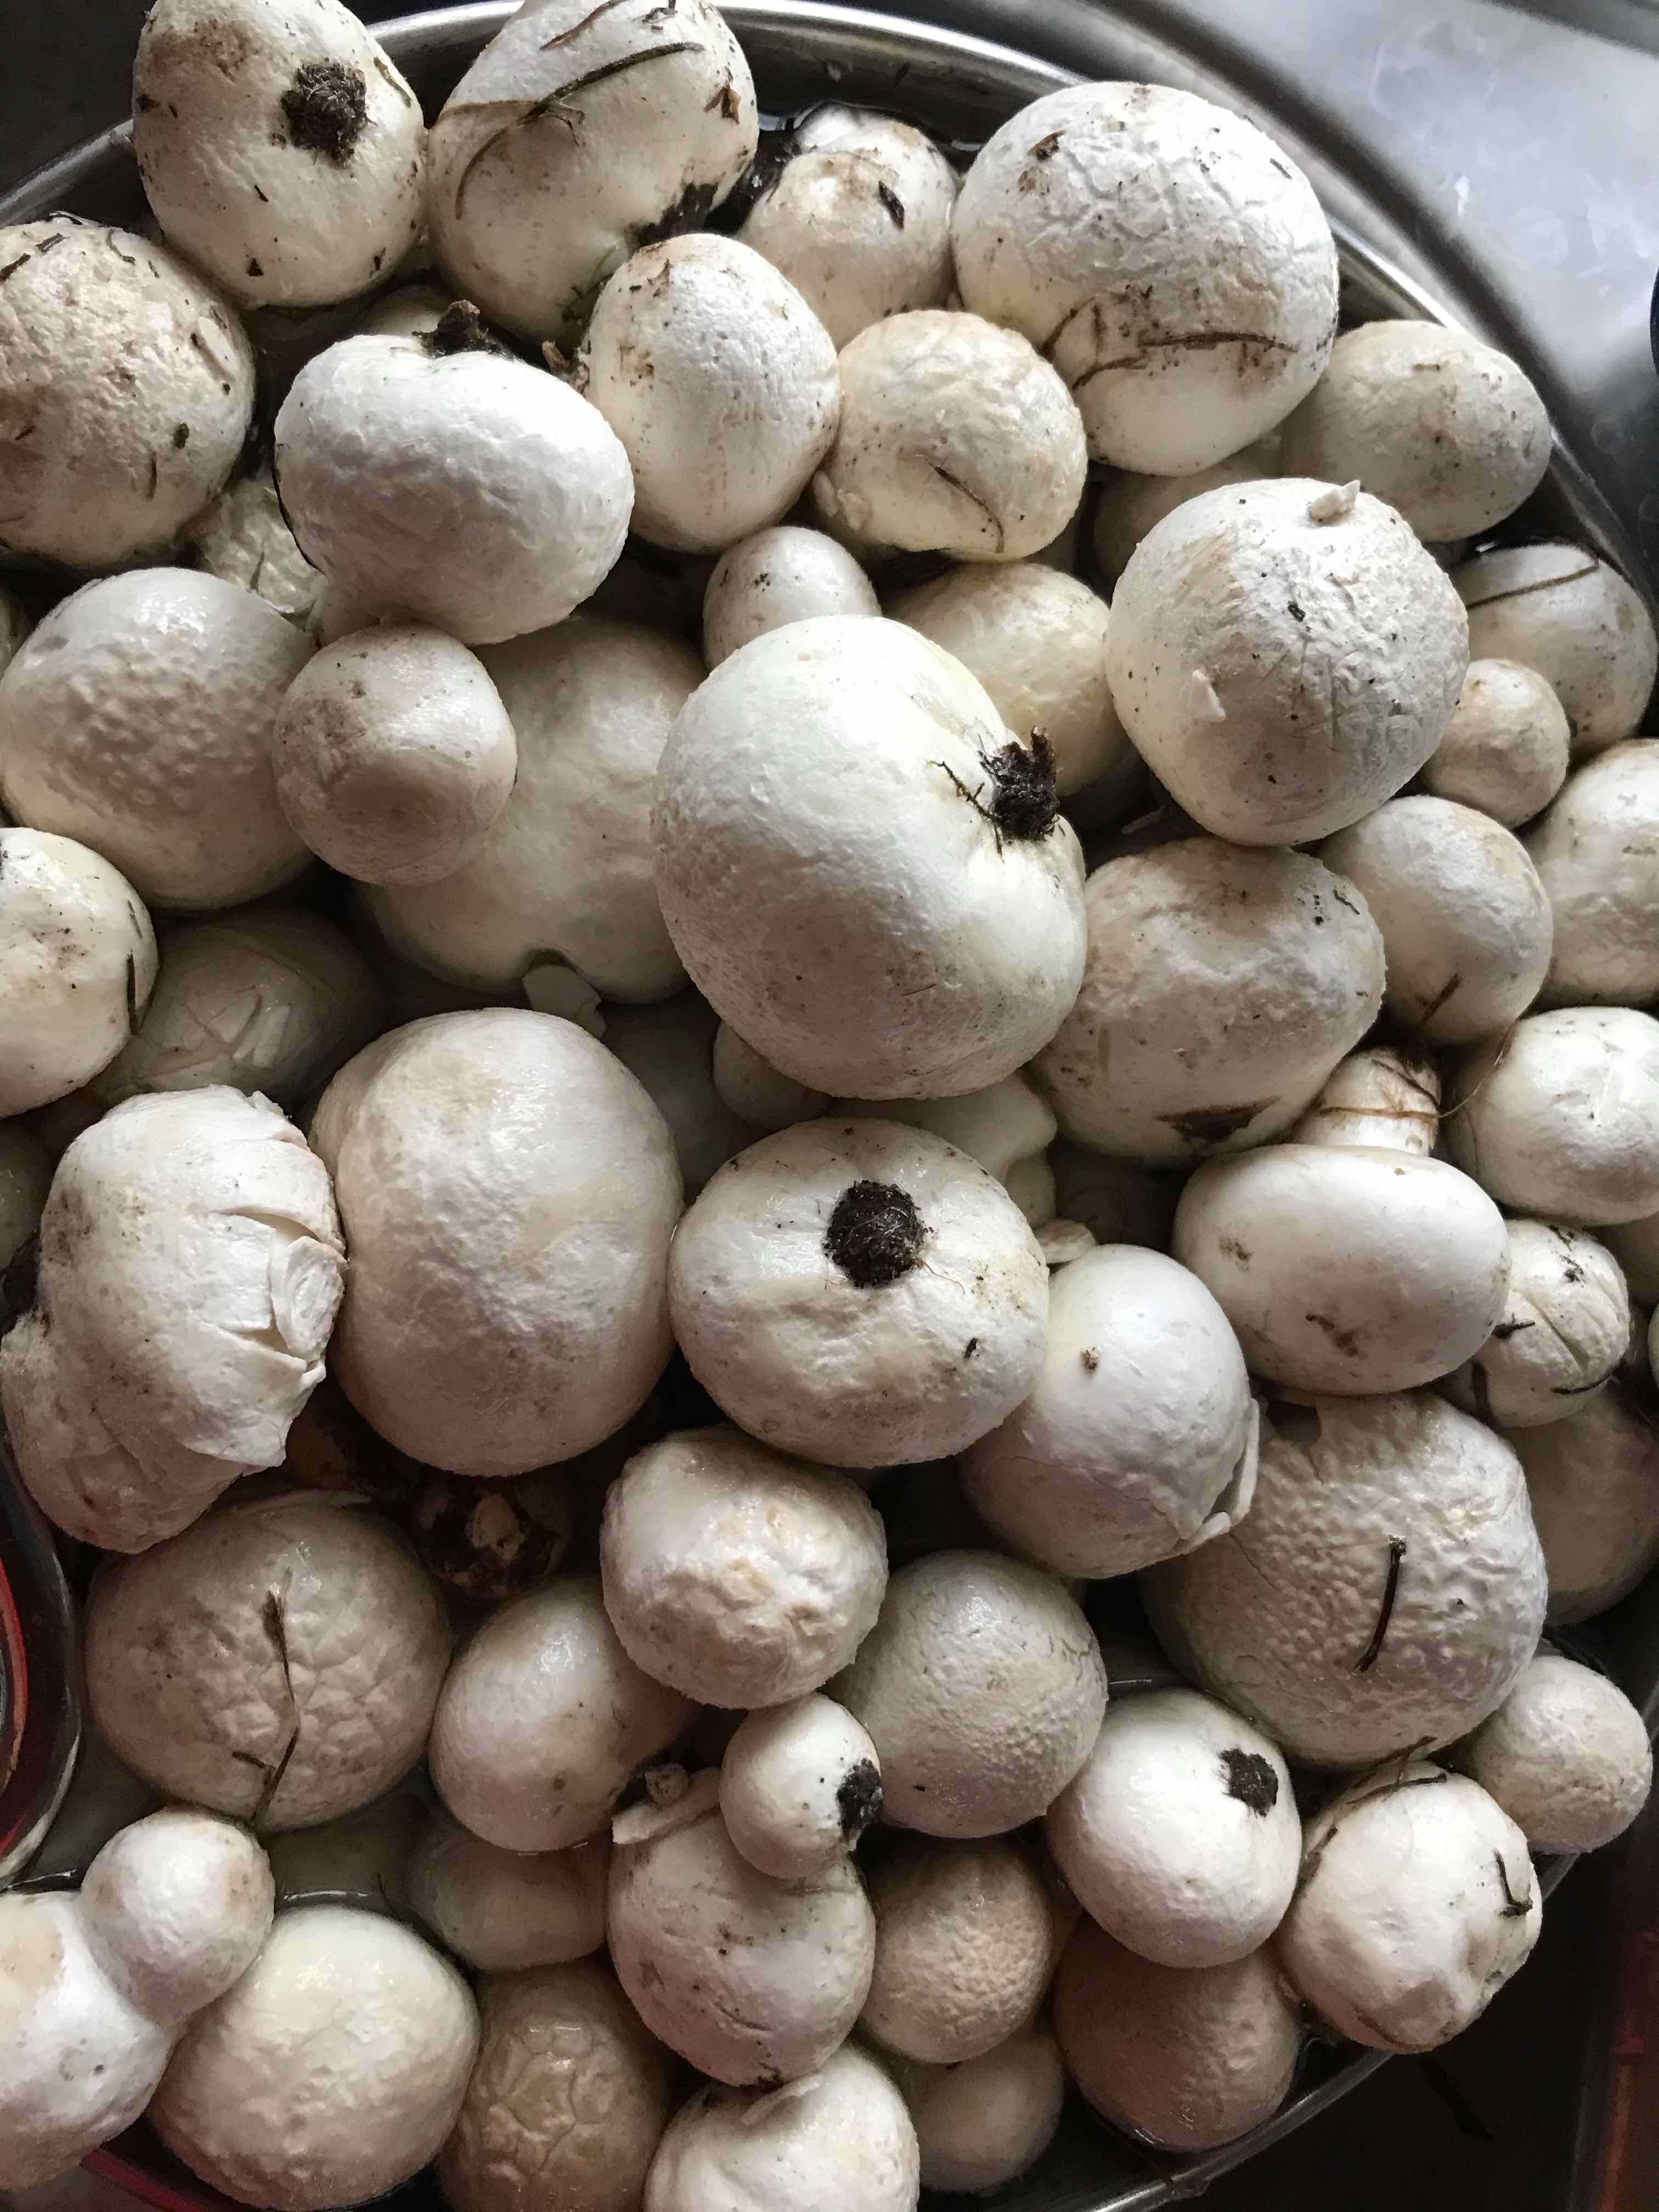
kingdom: Fungi
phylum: Basidiomycota
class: Agaricomycetes
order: Agaricales
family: Lycoperdaceae
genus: Bovista
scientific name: Bovista
